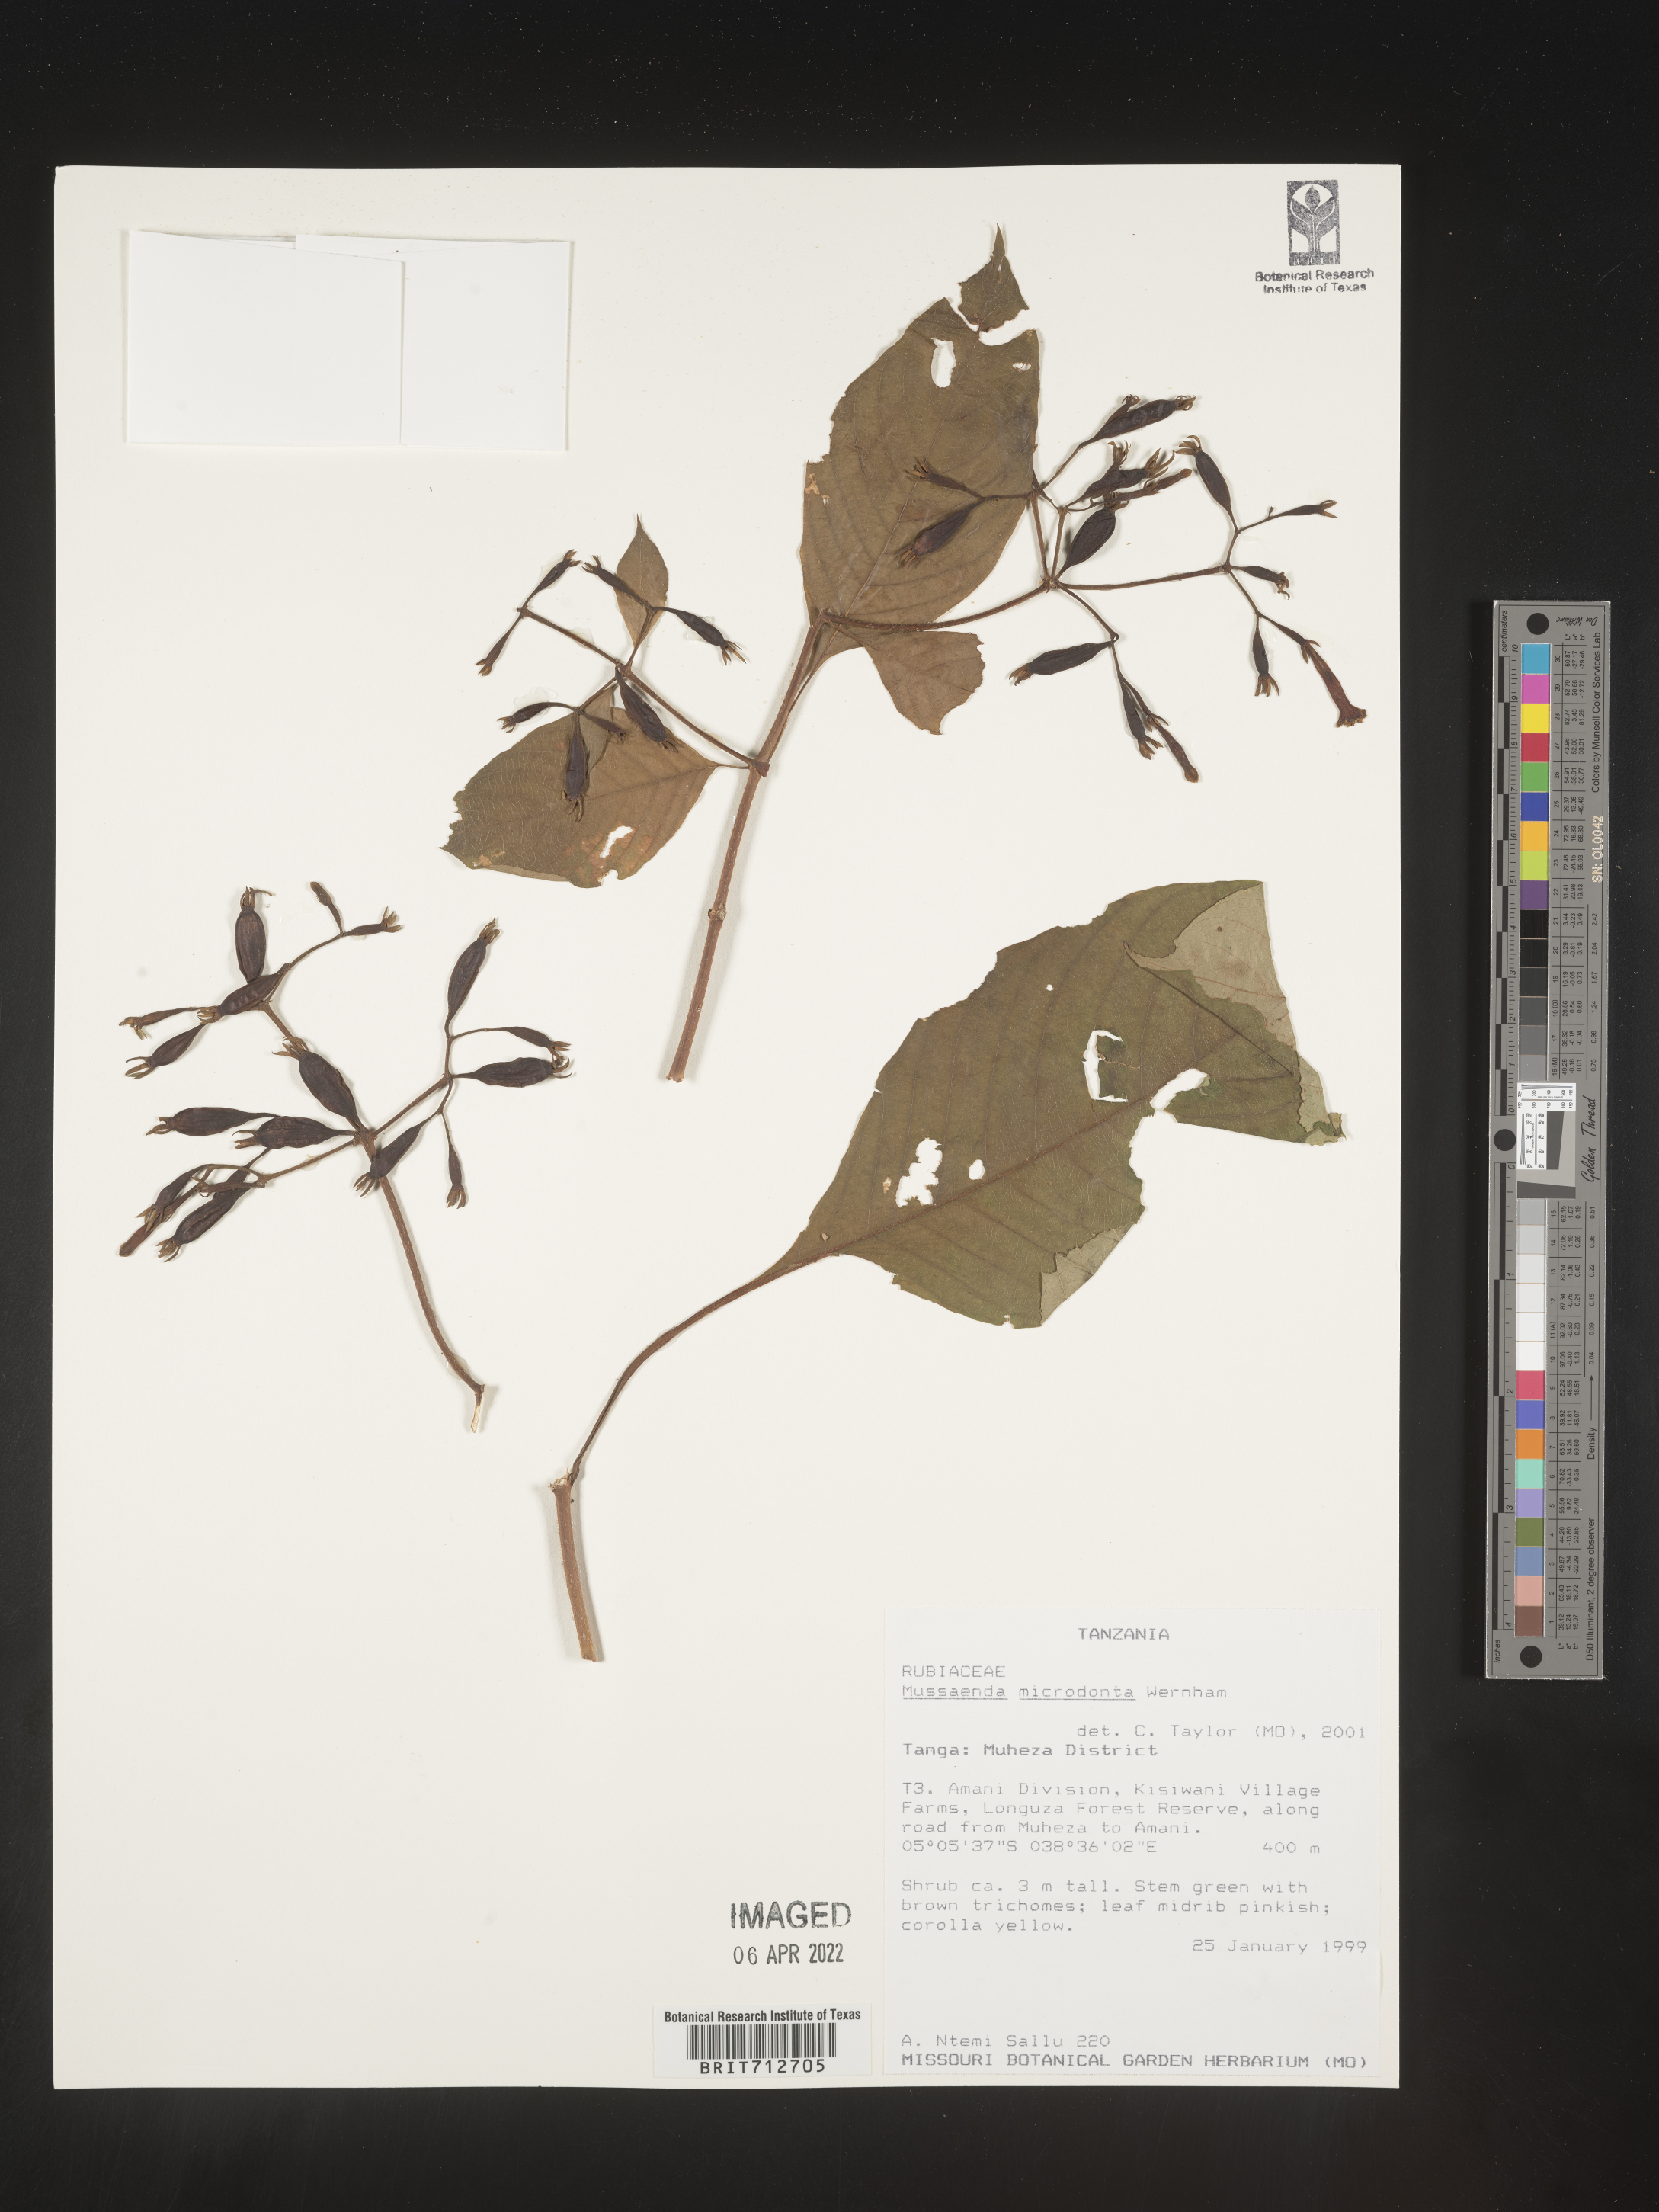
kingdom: Plantae
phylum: Tracheophyta
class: Magnoliopsida
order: Gentianales
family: Rubiaceae
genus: Mussaenda
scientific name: Mussaenda
